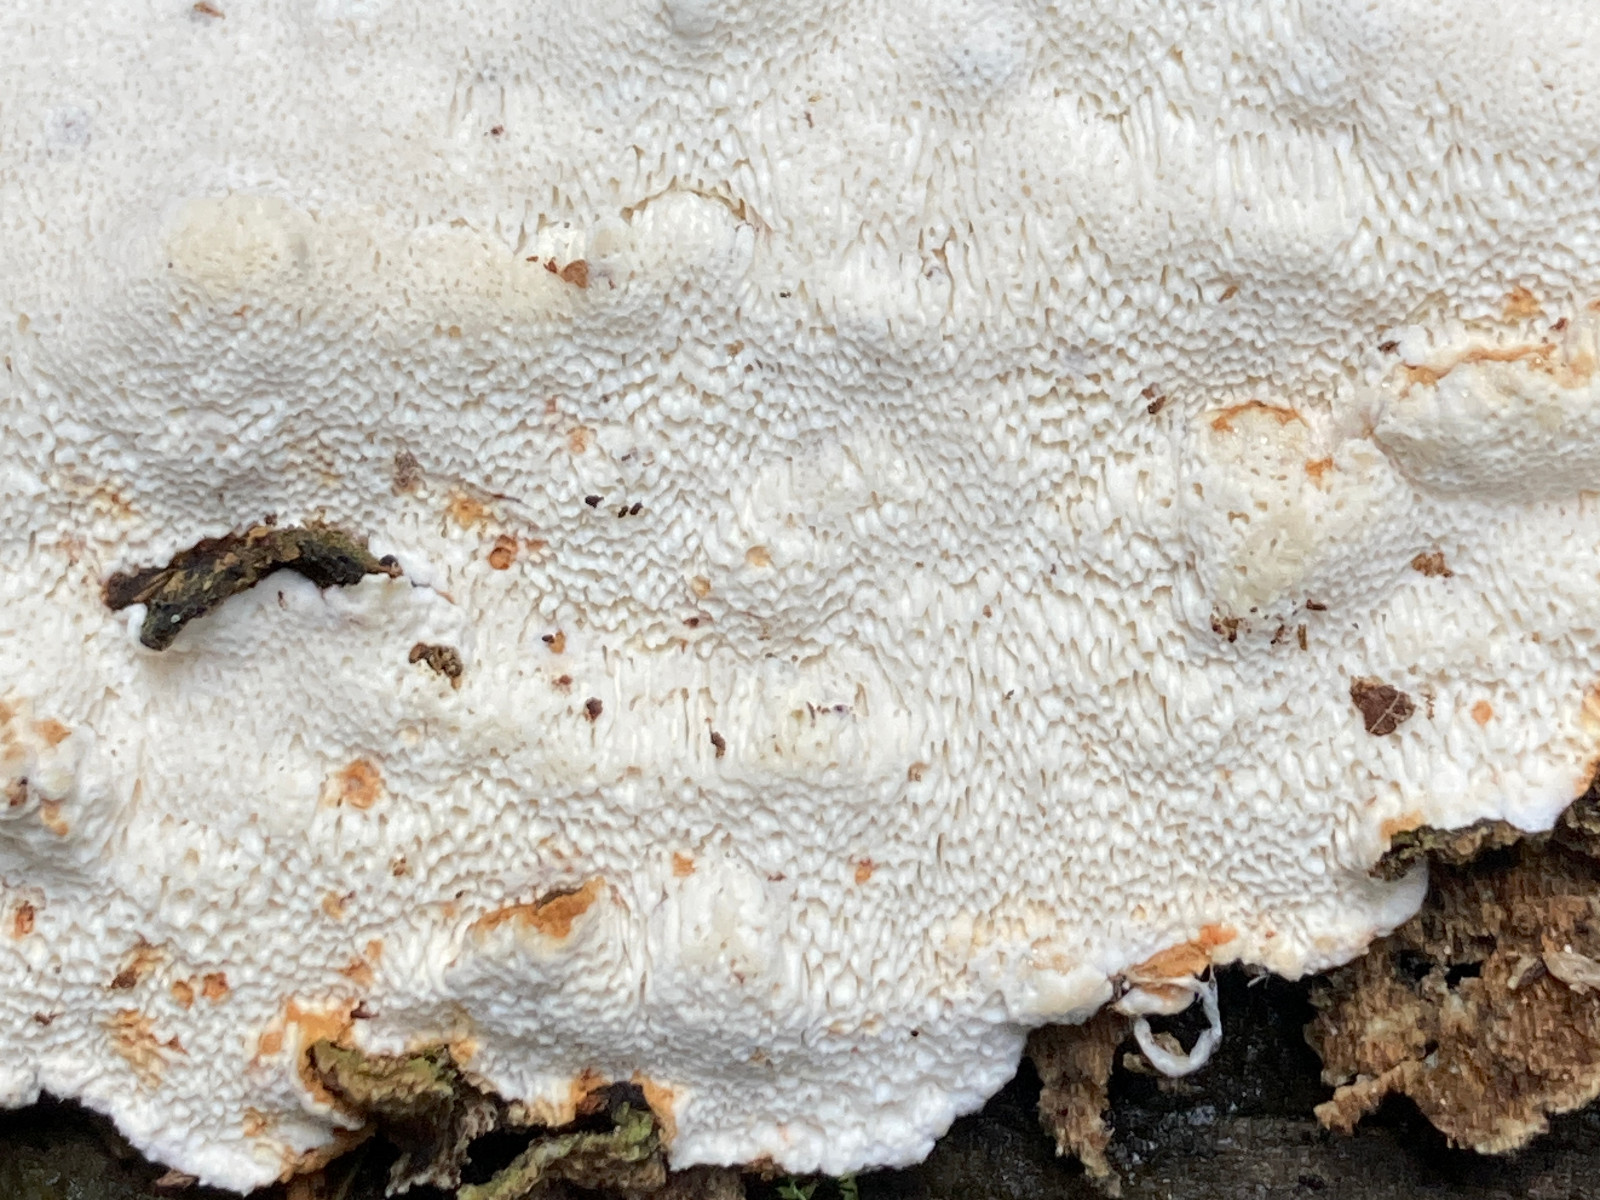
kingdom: Fungi
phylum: Basidiomycota
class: Agaricomycetes
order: Polyporales
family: Fomitopsidaceae
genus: Neoantrodia
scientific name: Neoantrodia serialis
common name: række-sejporesvamp
